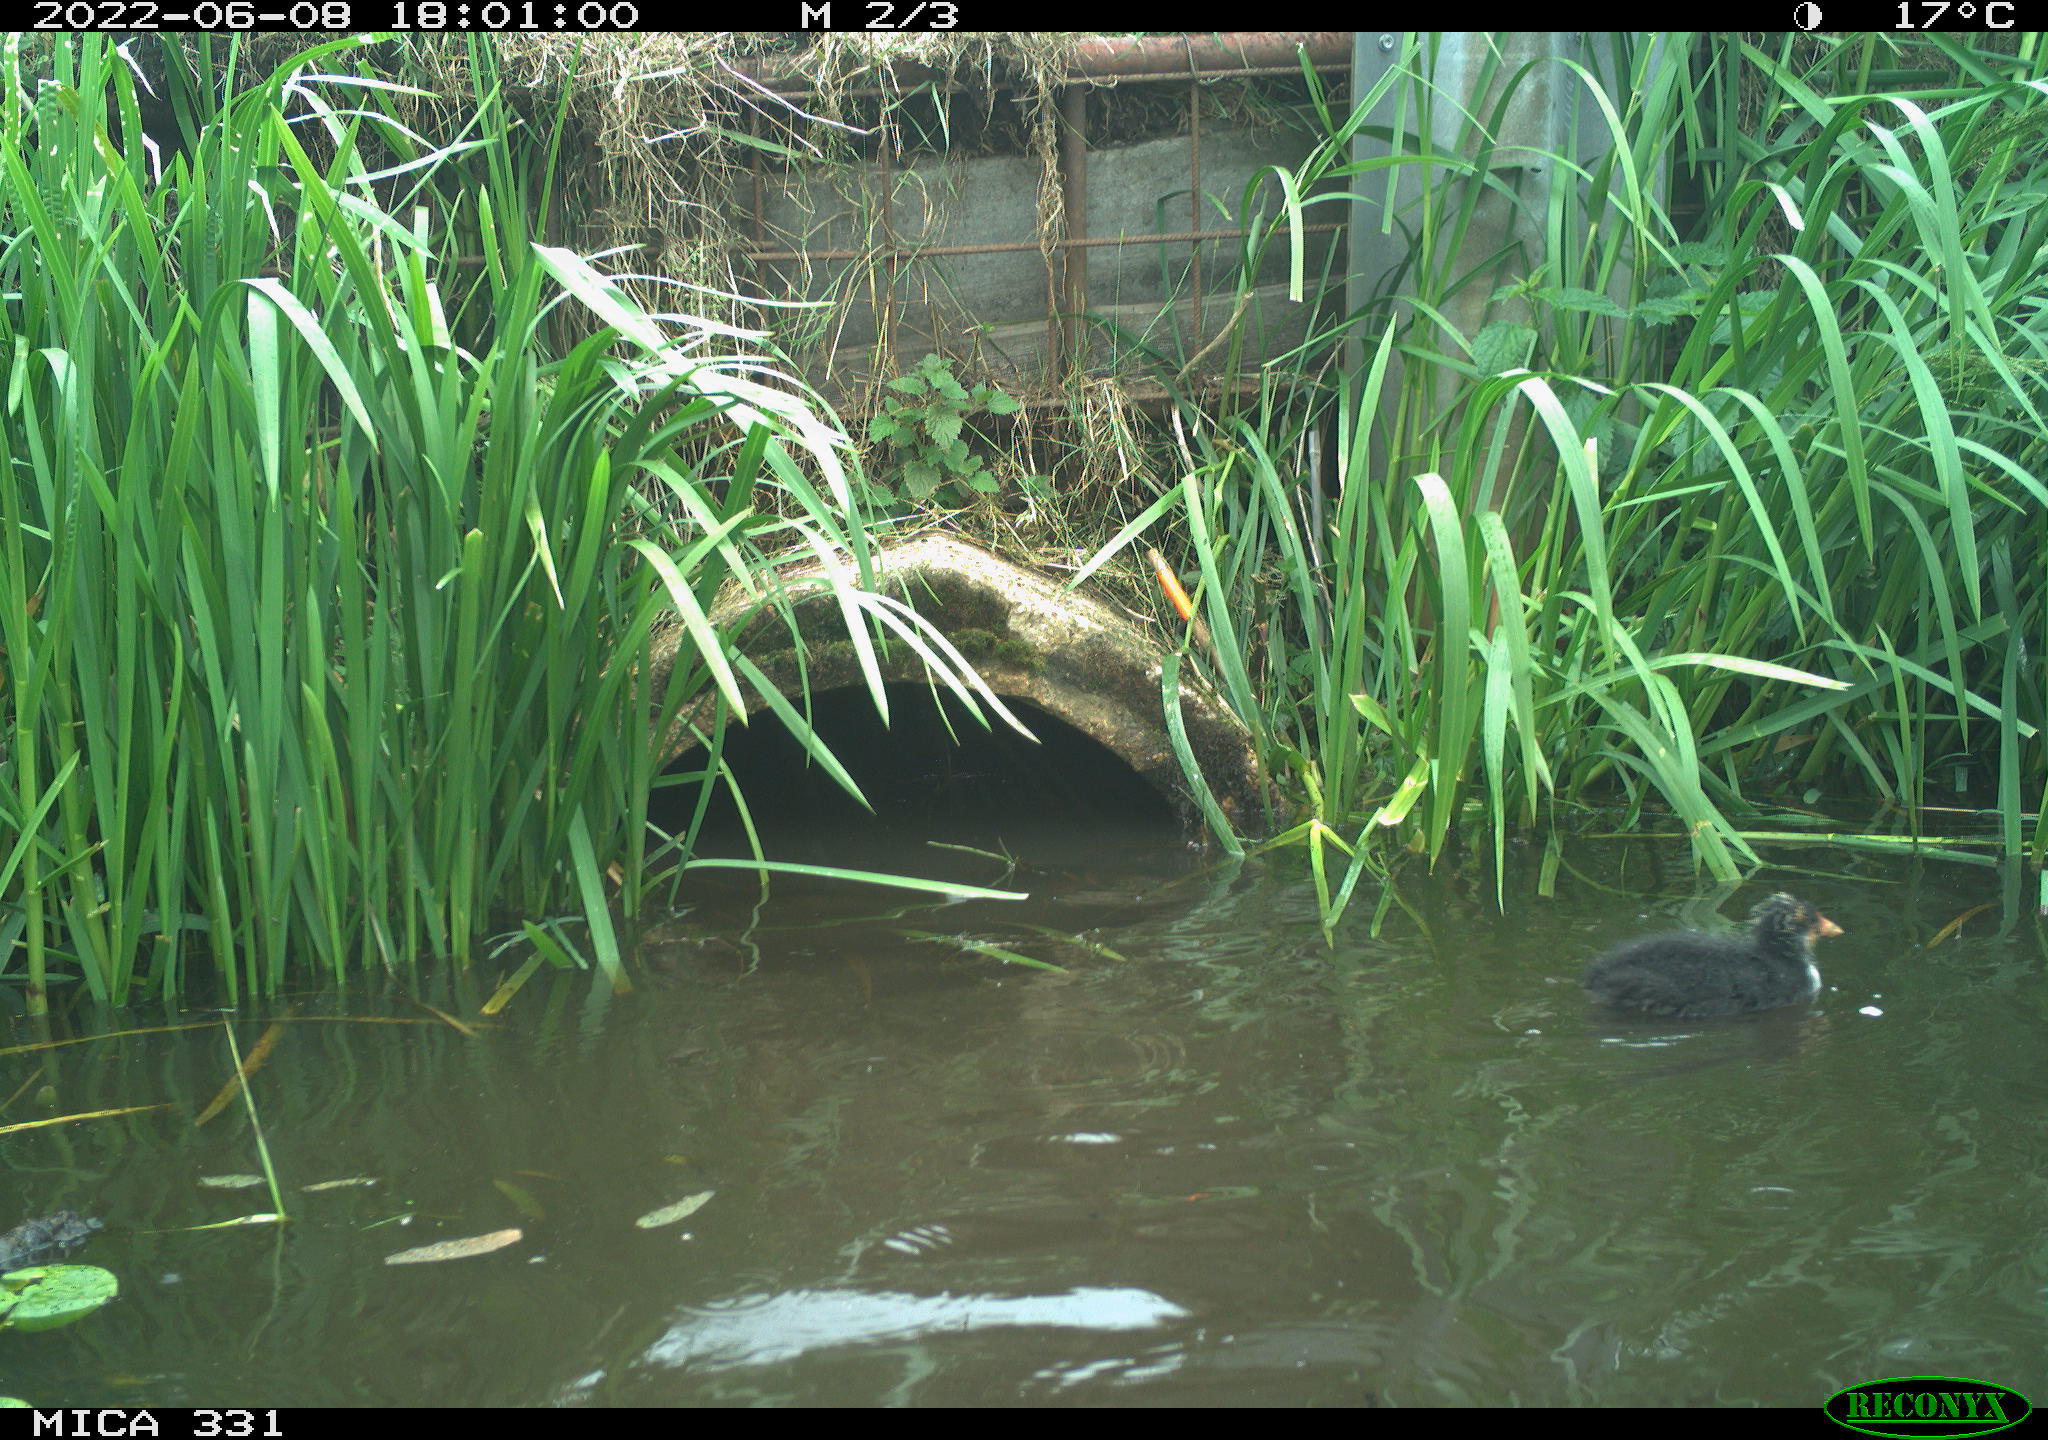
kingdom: Animalia
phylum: Chordata
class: Aves
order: Gruiformes
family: Rallidae
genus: Fulica
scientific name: Fulica atra
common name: Eurasian coot
